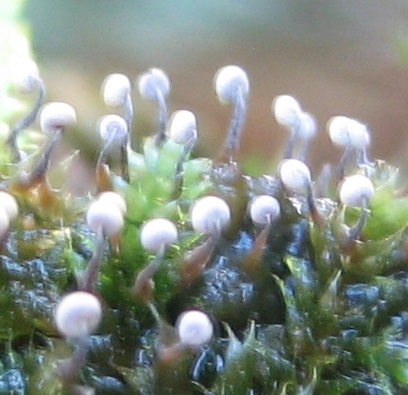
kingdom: Protozoa
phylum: Mycetozoa
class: Myxomycetes
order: Physarales
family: Physaraceae
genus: Physarum
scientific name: Physarum viride
